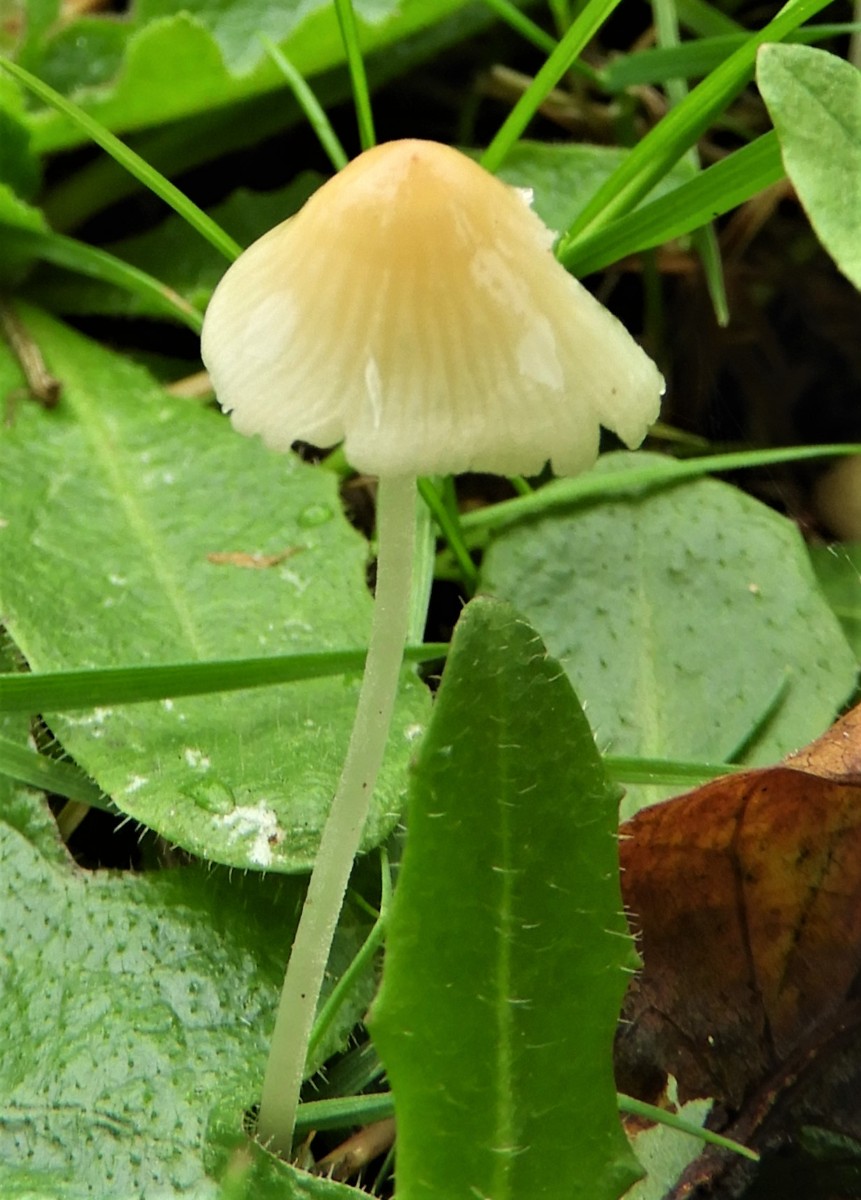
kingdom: Fungi
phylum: Basidiomycota
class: Agaricomycetes
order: Agaricales
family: Mycenaceae
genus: Atheniella
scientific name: Atheniella flavoalba
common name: gulhvid huesvamp
